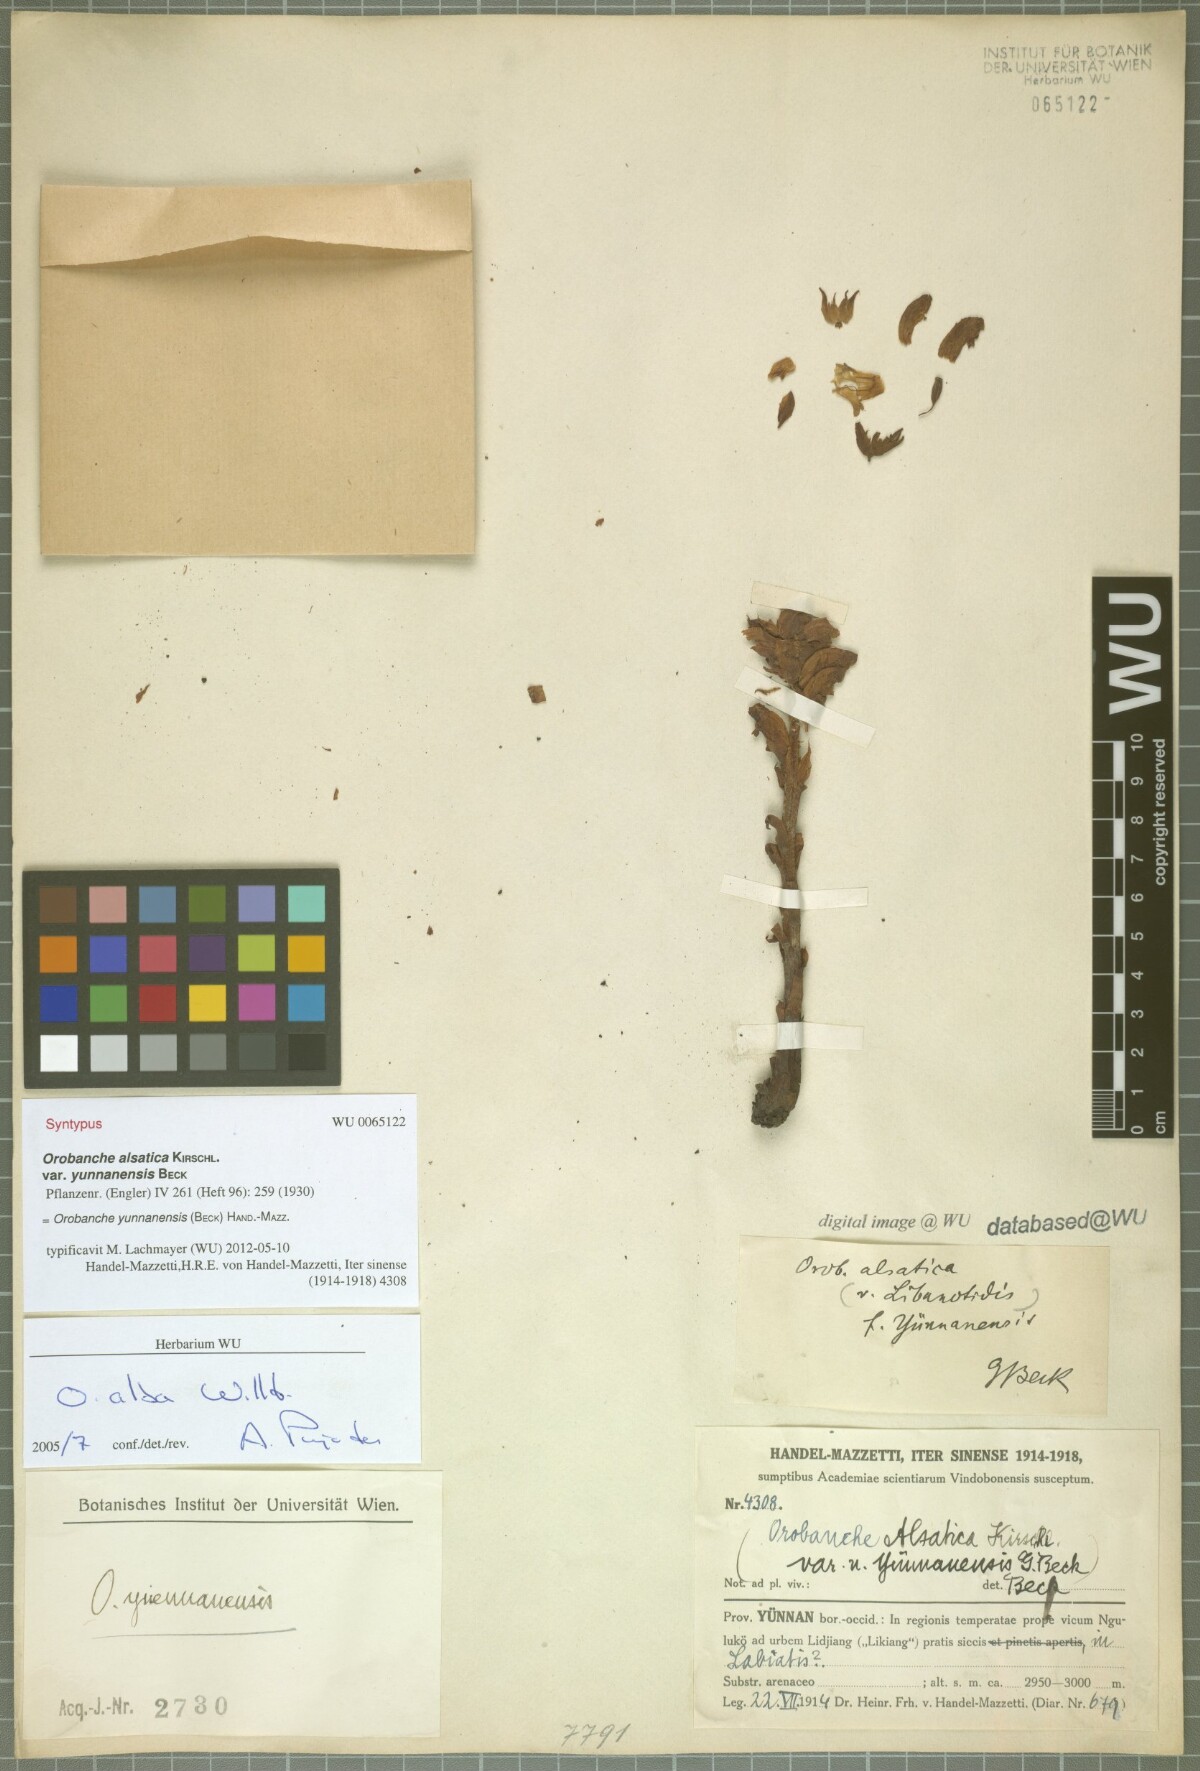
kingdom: Plantae
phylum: Tracheophyta
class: Magnoliopsida
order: Lamiales
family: Orobanchaceae
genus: Orobanche
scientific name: Orobanche yunnanensis
